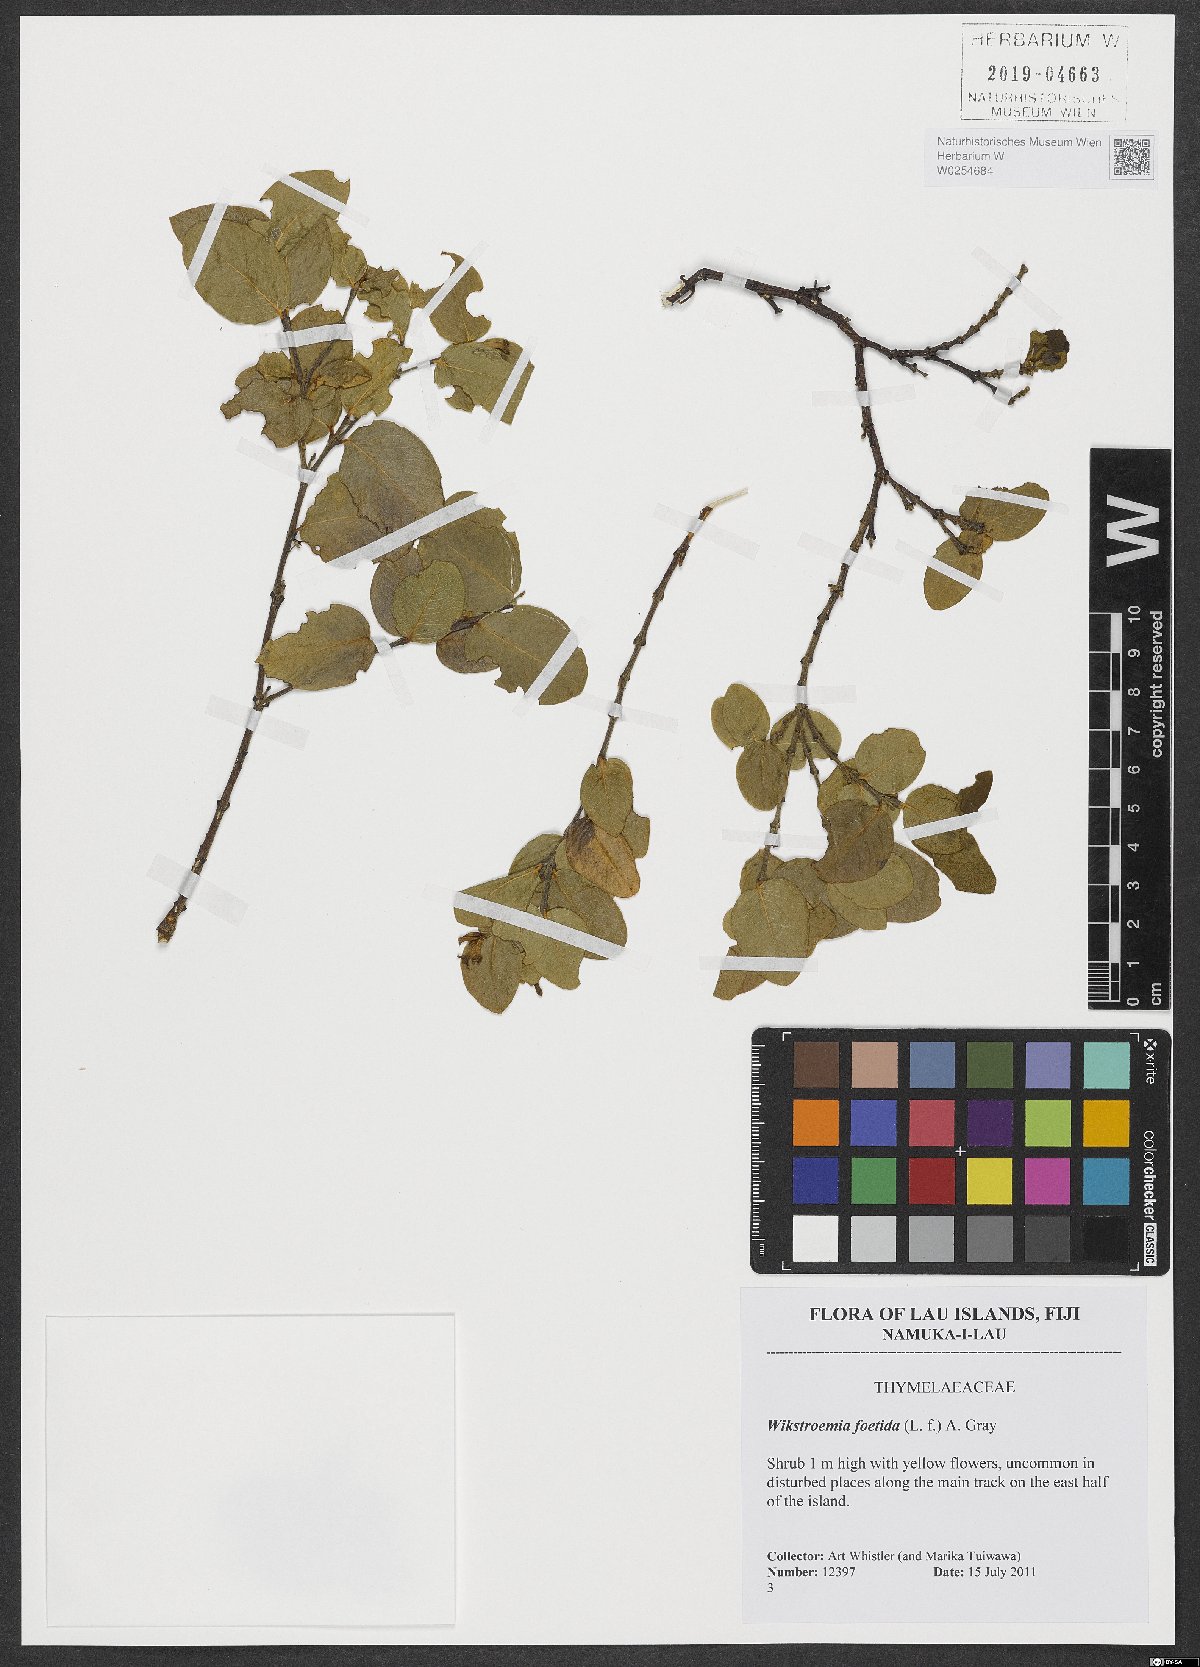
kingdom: Plantae
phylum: Tracheophyta
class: Magnoliopsida
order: Gentianales
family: Rubiaceae
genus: Ixora
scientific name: Ixora foetida
